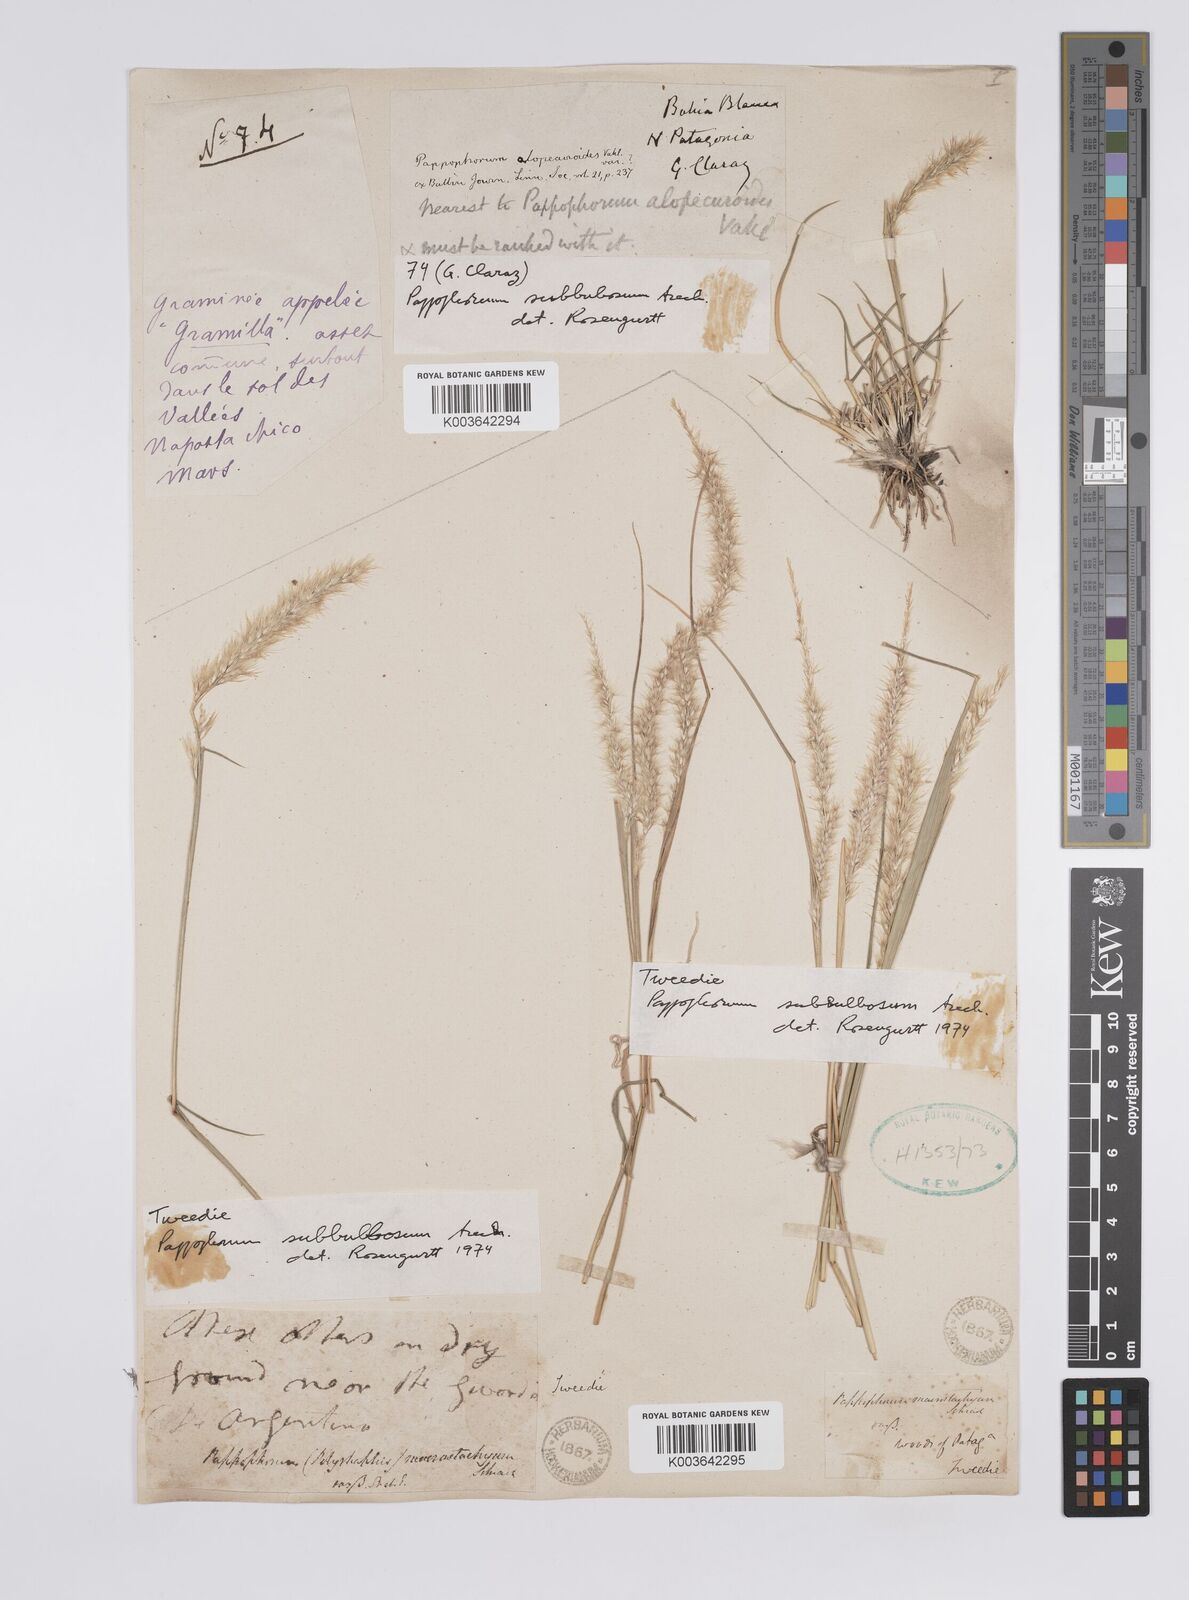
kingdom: Plantae
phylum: Tracheophyta
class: Liliopsida
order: Poales
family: Poaceae
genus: Pappophorum
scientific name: Pappophorum mucronulatum
